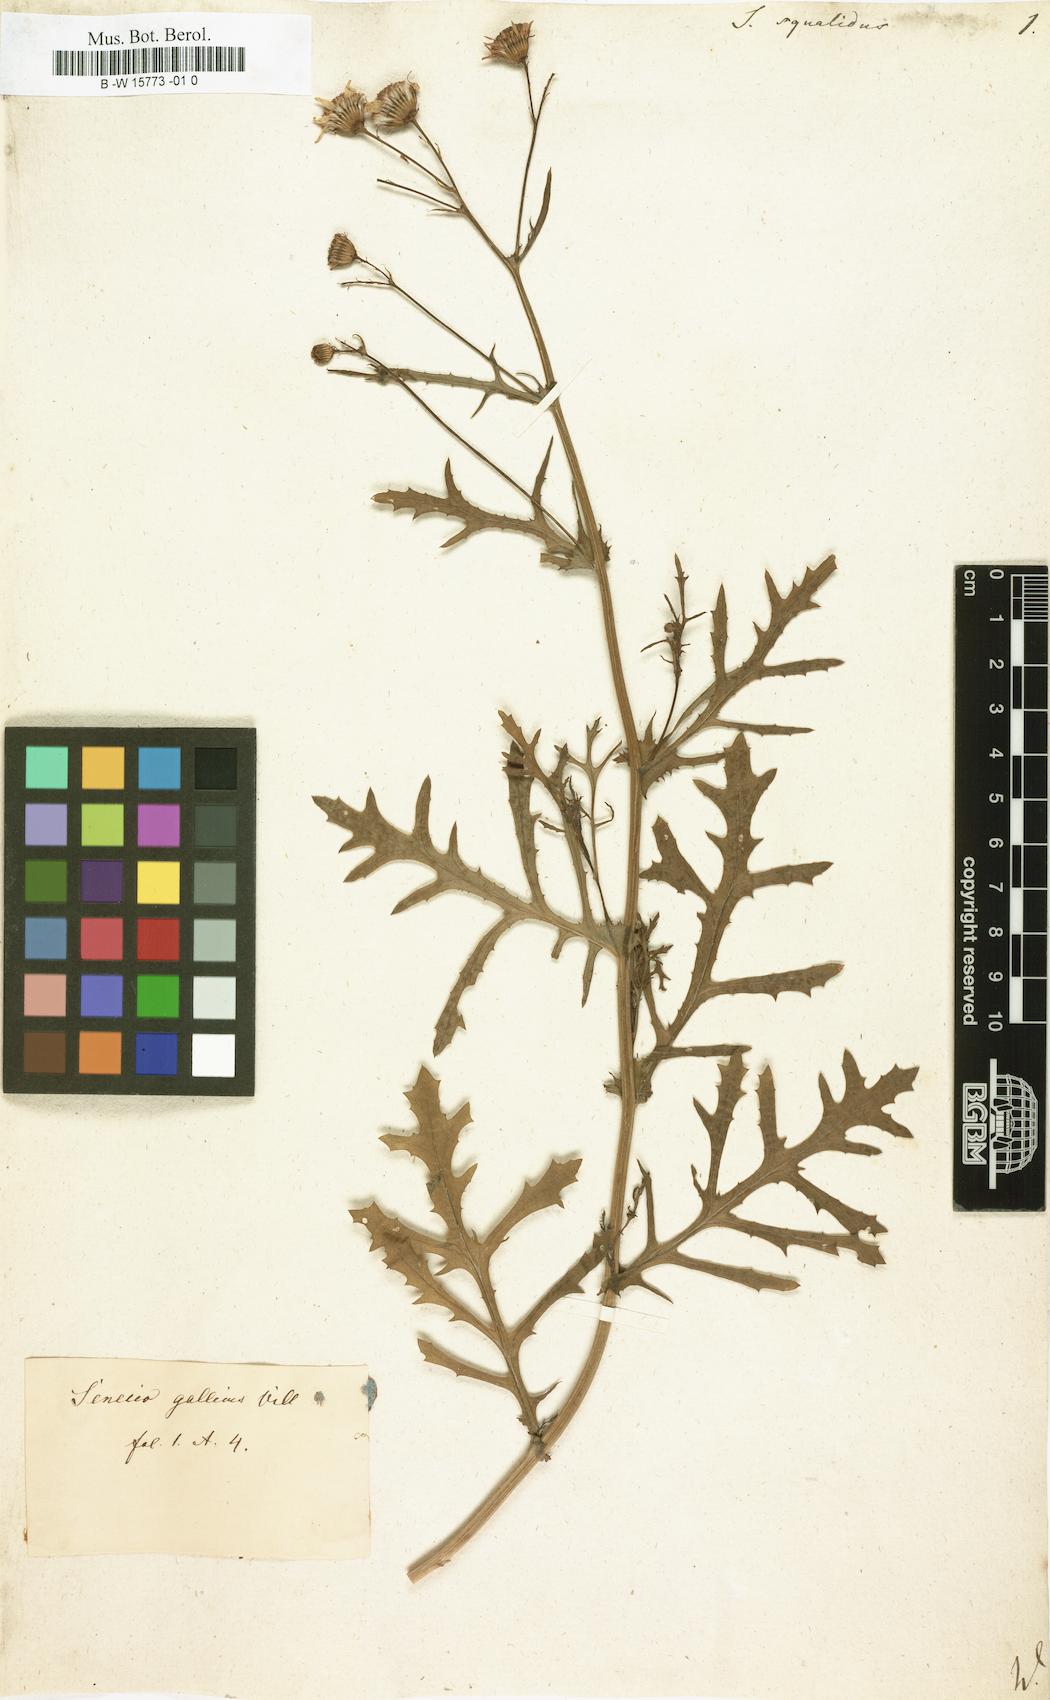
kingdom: Plantae
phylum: Tracheophyta
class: Magnoliopsida
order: Asterales
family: Asteraceae
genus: Senecio
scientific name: Senecio squalidus
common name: Oxford ragwort
